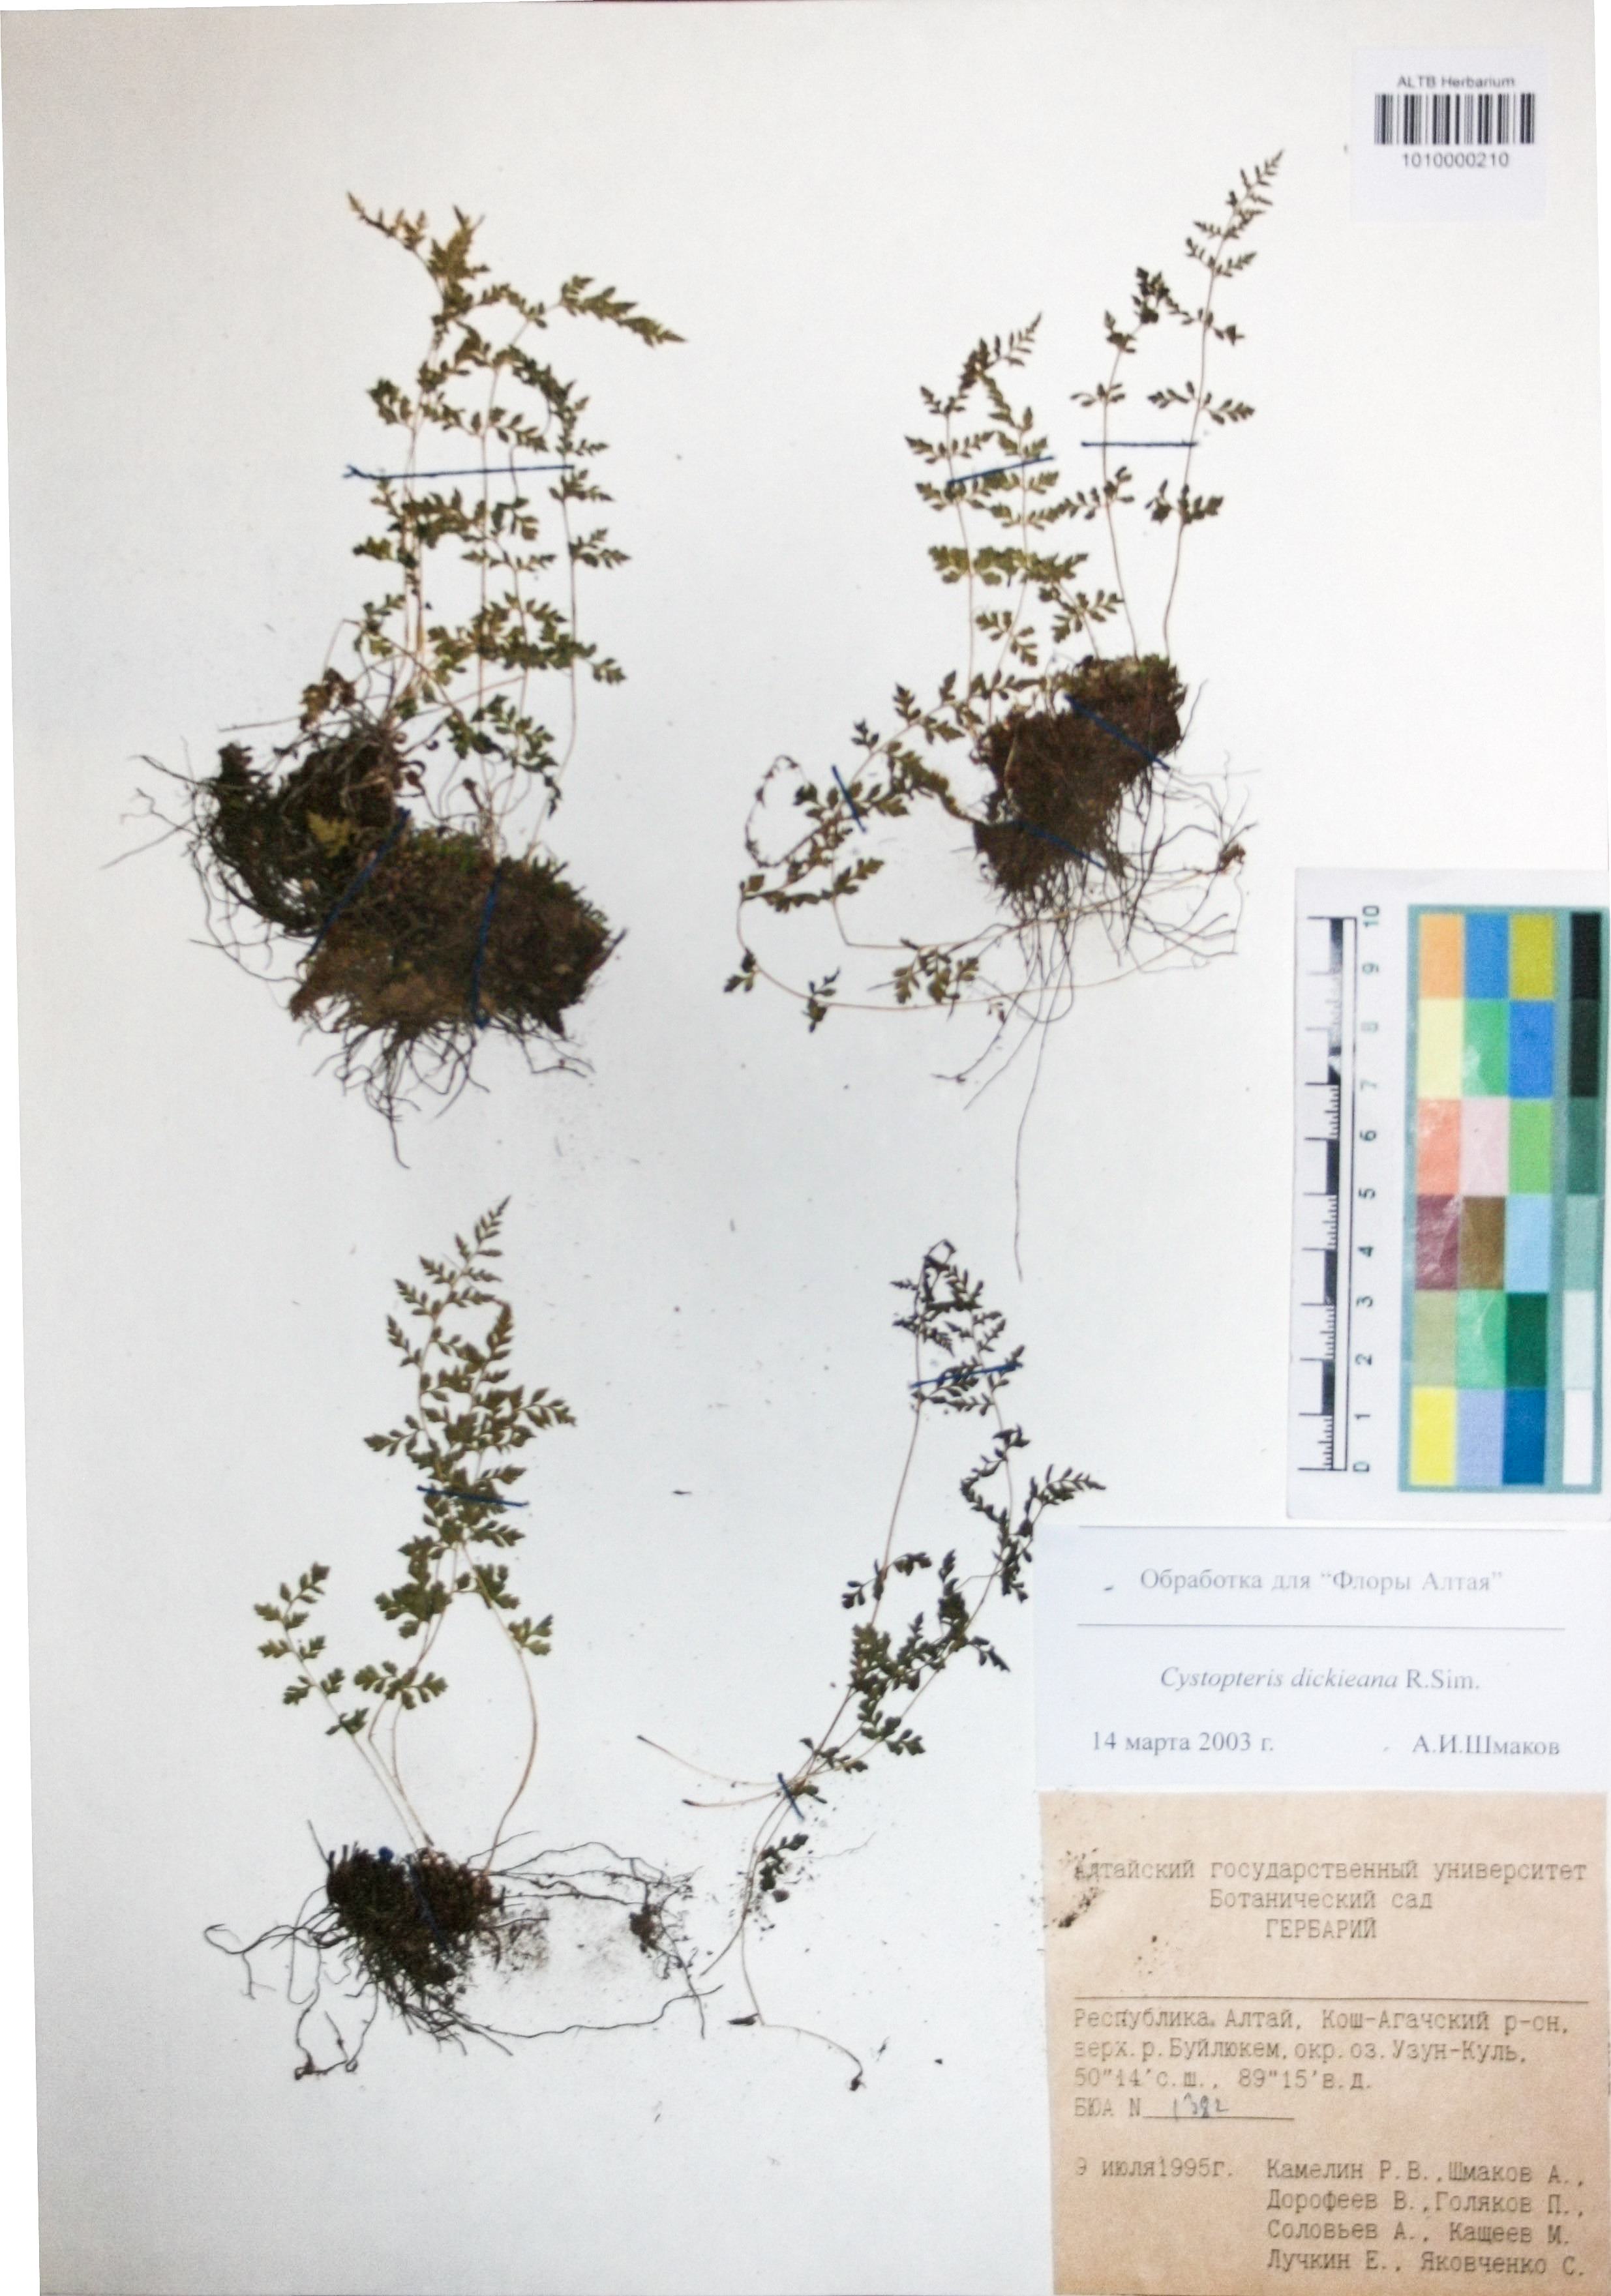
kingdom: Plantae
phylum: Tracheophyta
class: Polypodiopsida
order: Polypodiales
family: Cystopteridaceae
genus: Cystopteris
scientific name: Cystopteris dickieana
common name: Dickie's bladder-fern
